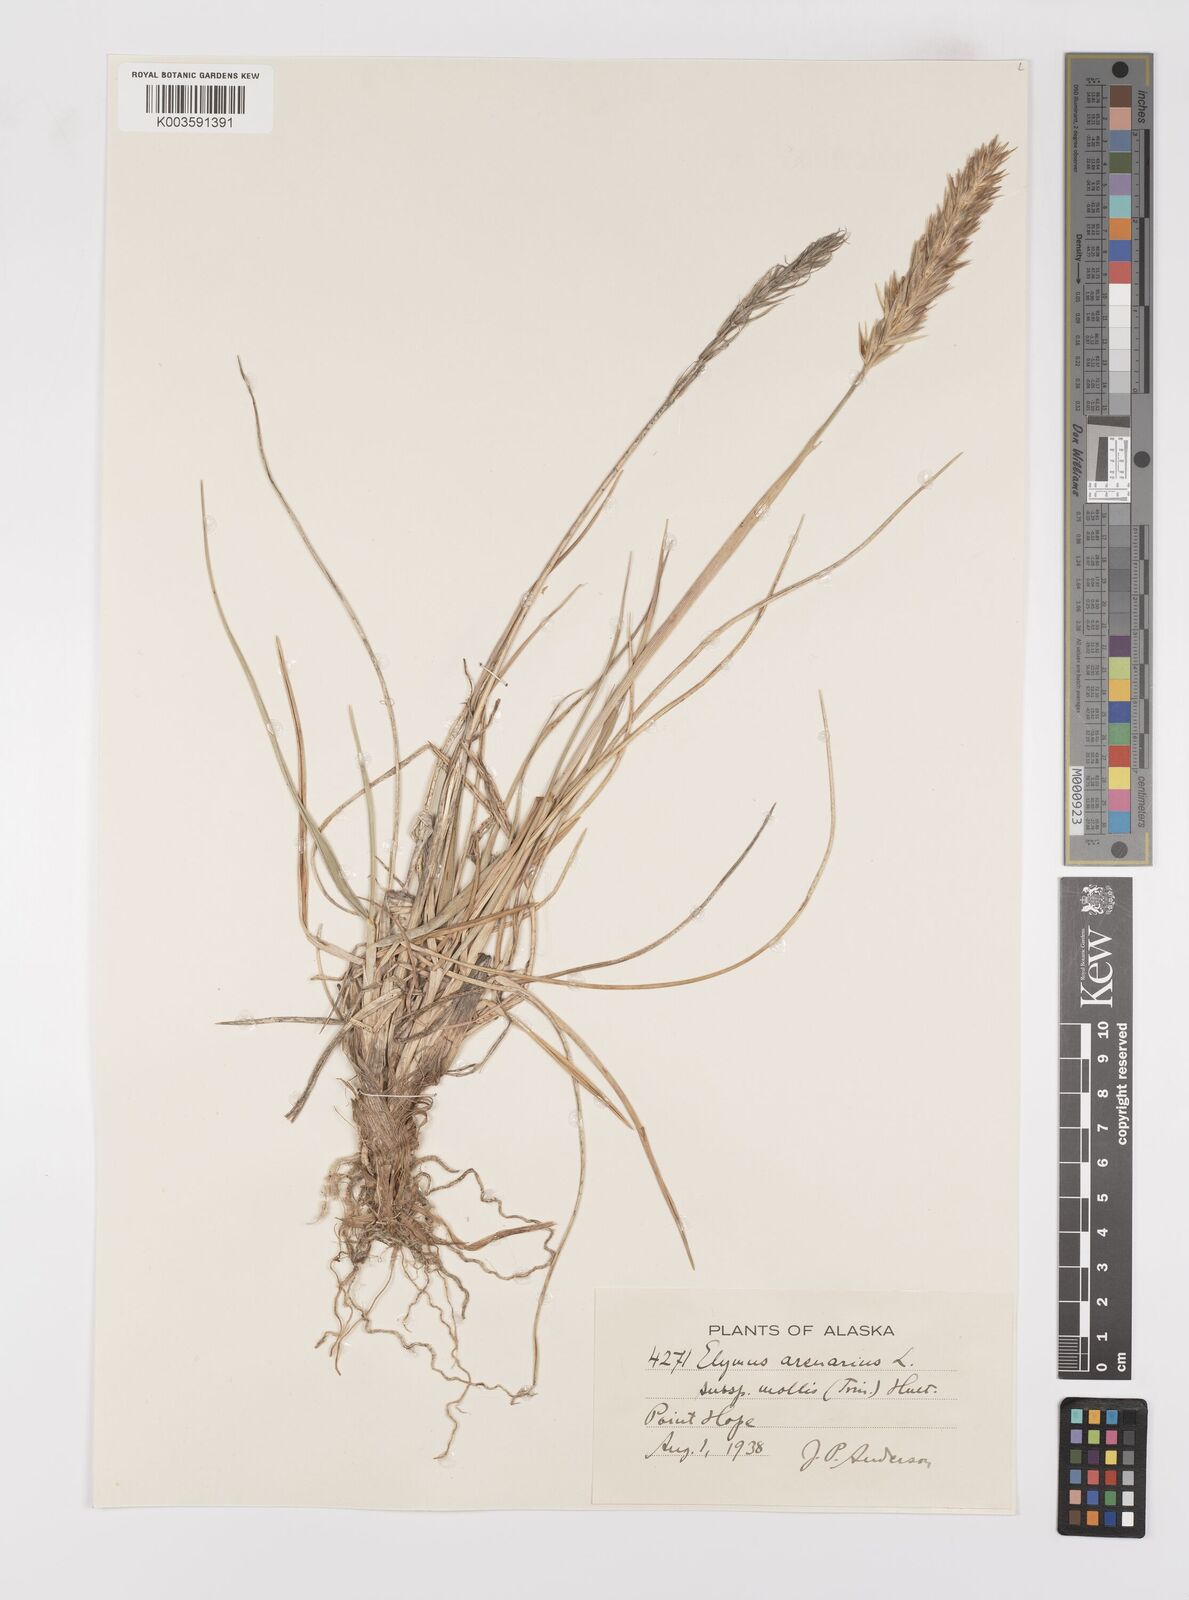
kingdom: Plantae
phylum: Tracheophyta
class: Liliopsida
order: Poales
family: Poaceae
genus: Leymus
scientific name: Leymus mollis
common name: American dune grass
